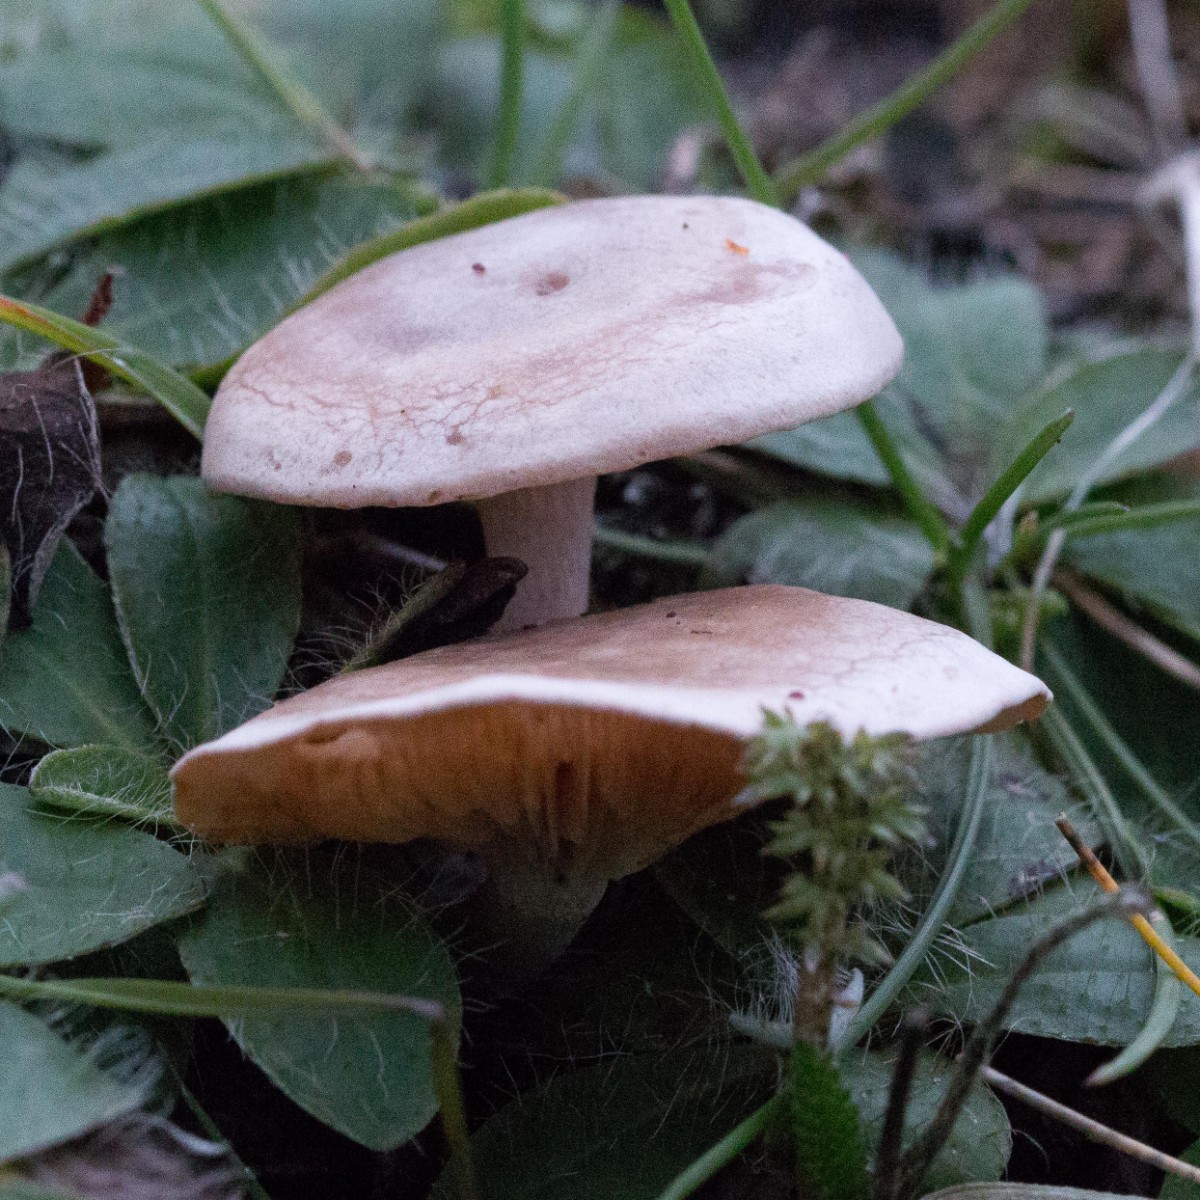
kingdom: Fungi
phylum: Basidiomycota
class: Agaricomycetes
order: Agaricales
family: Tricholomataceae
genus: Clitocybe
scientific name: Clitocybe rivulosa
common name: eng-tragthat
